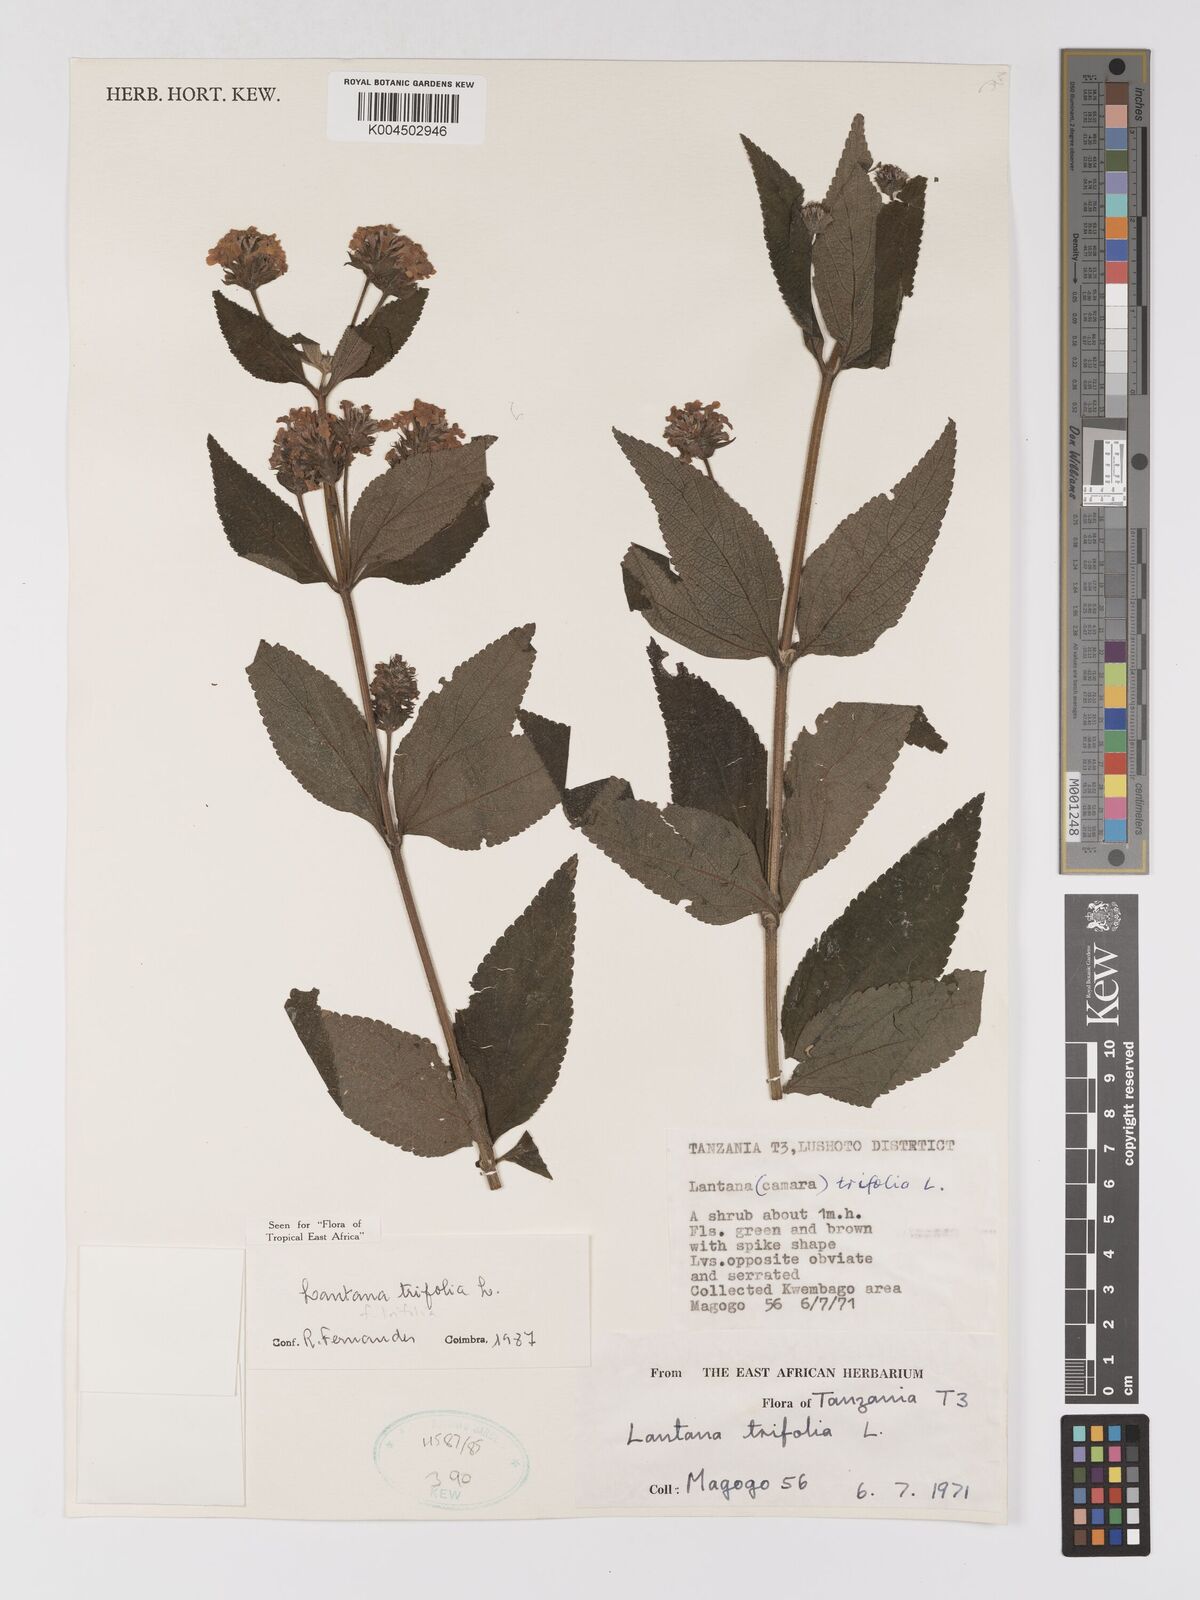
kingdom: Plantae
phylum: Tracheophyta
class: Magnoliopsida
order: Lamiales
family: Verbenaceae
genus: Lantana
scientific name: Lantana trifolia
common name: Sweet-sage
